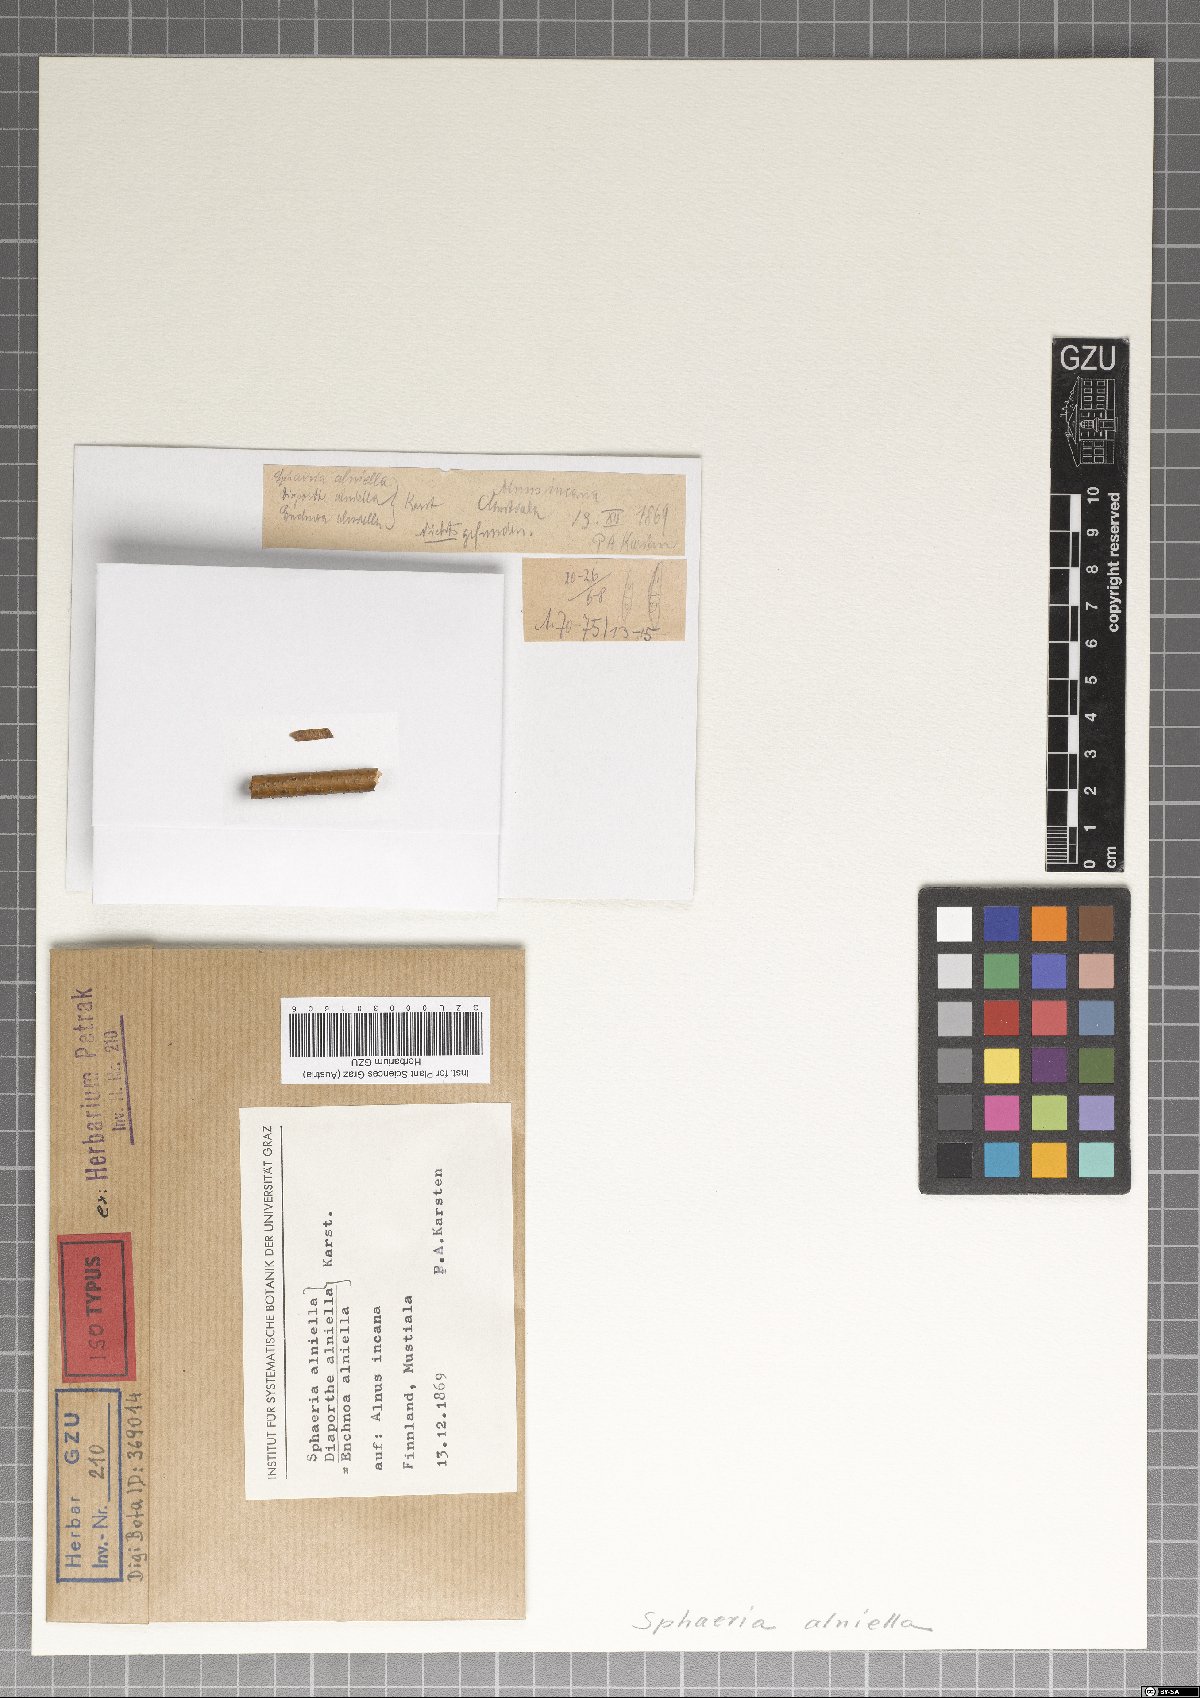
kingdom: Fungi
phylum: Ascomycota
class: Sordariomycetes
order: Diaporthales
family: Valsaceae
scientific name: Valsaceae
